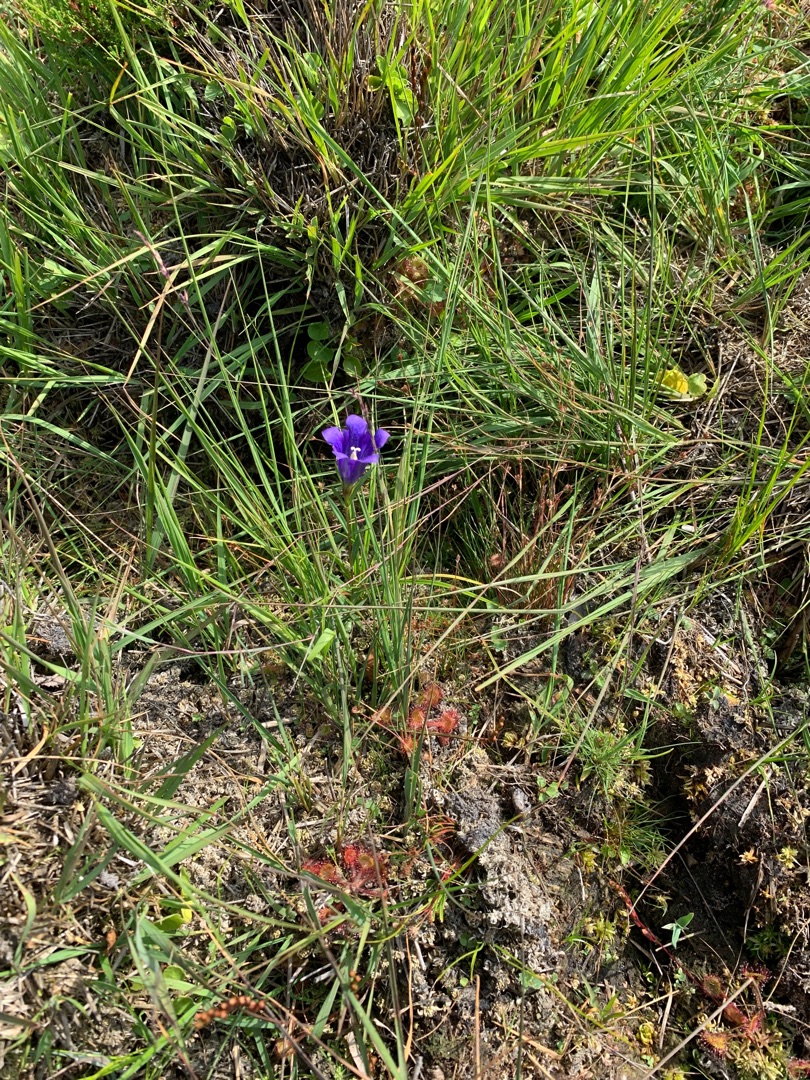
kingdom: Plantae
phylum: Tracheophyta
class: Magnoliopsida
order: Gentianales
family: Gentianaceae
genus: Gentiana
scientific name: Gentiana pneumonanthe
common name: Klokke-ensian
